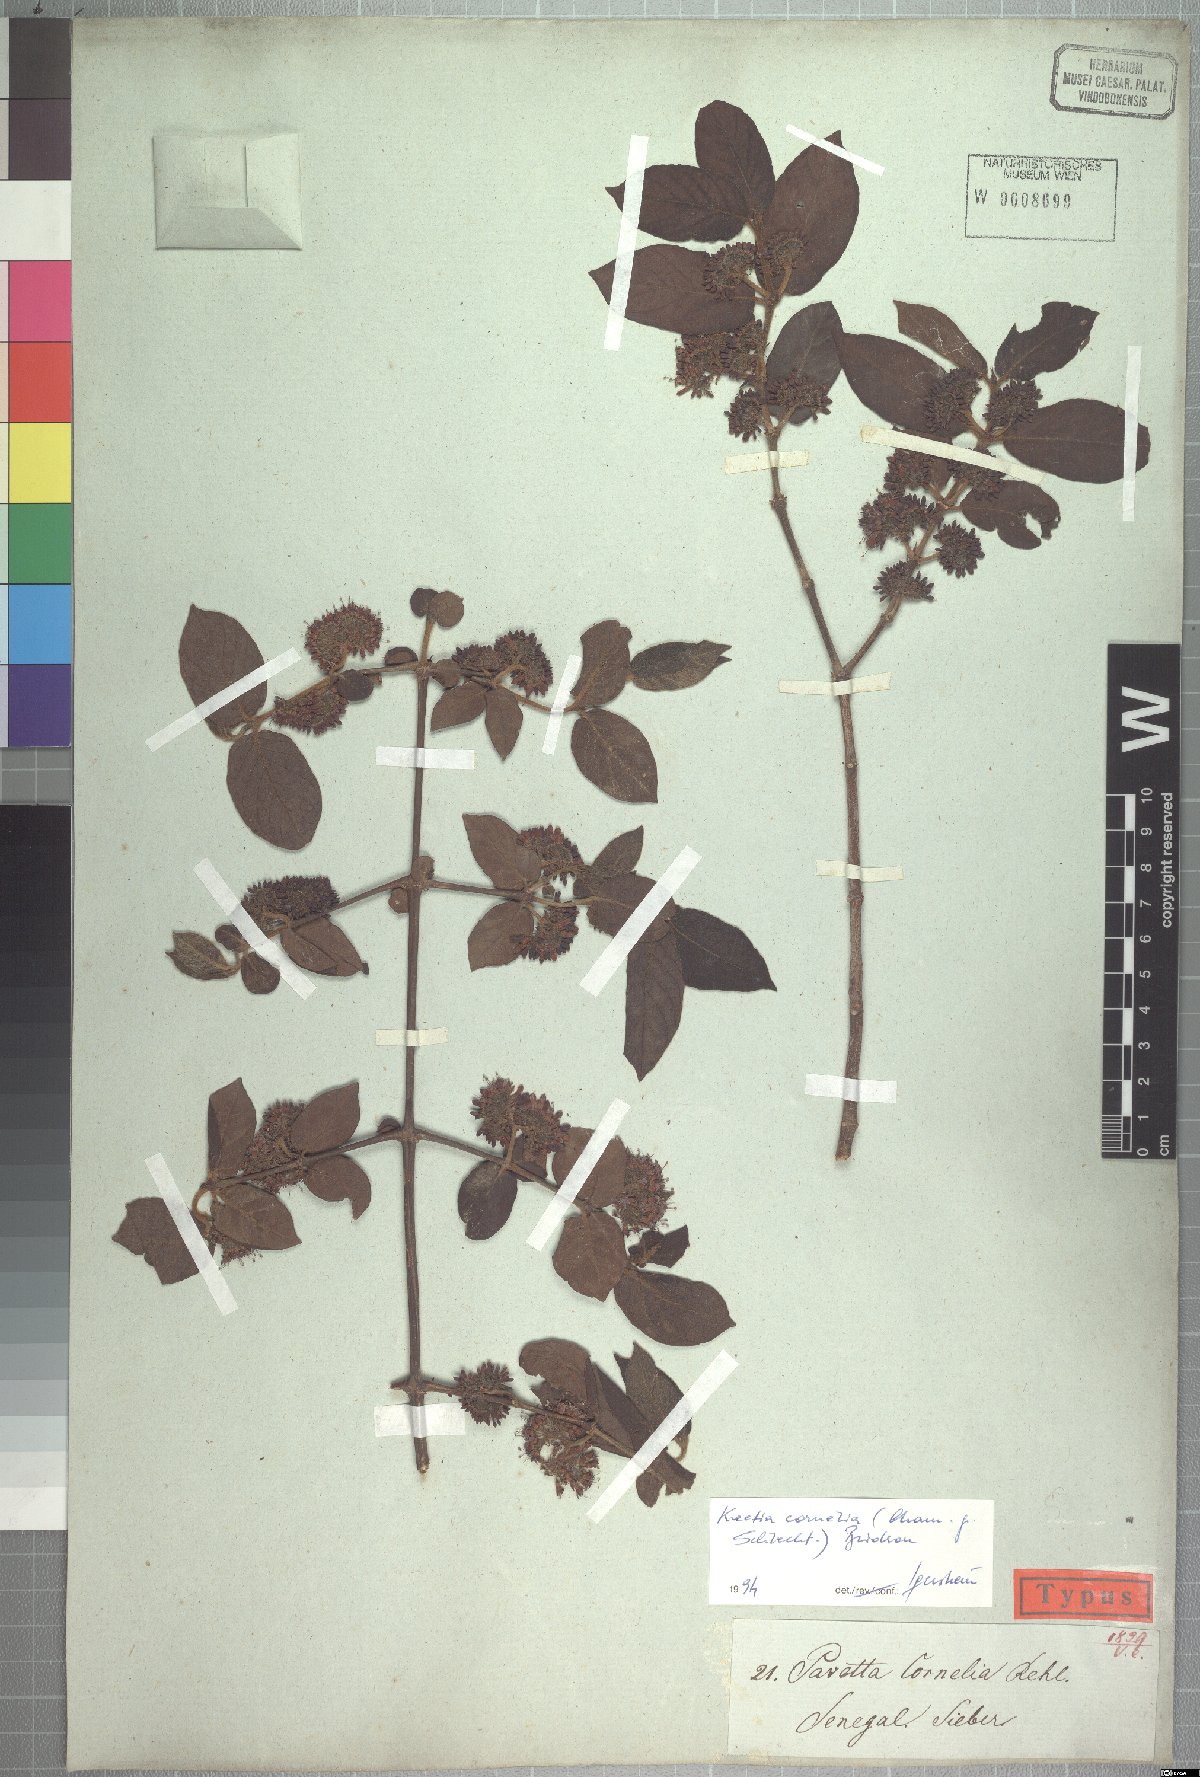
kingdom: Plantae
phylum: Tracheophyta
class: Magnoliopsida
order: Gentianales
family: Rubiaceae
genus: Keetia
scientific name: Keetia cornelia
